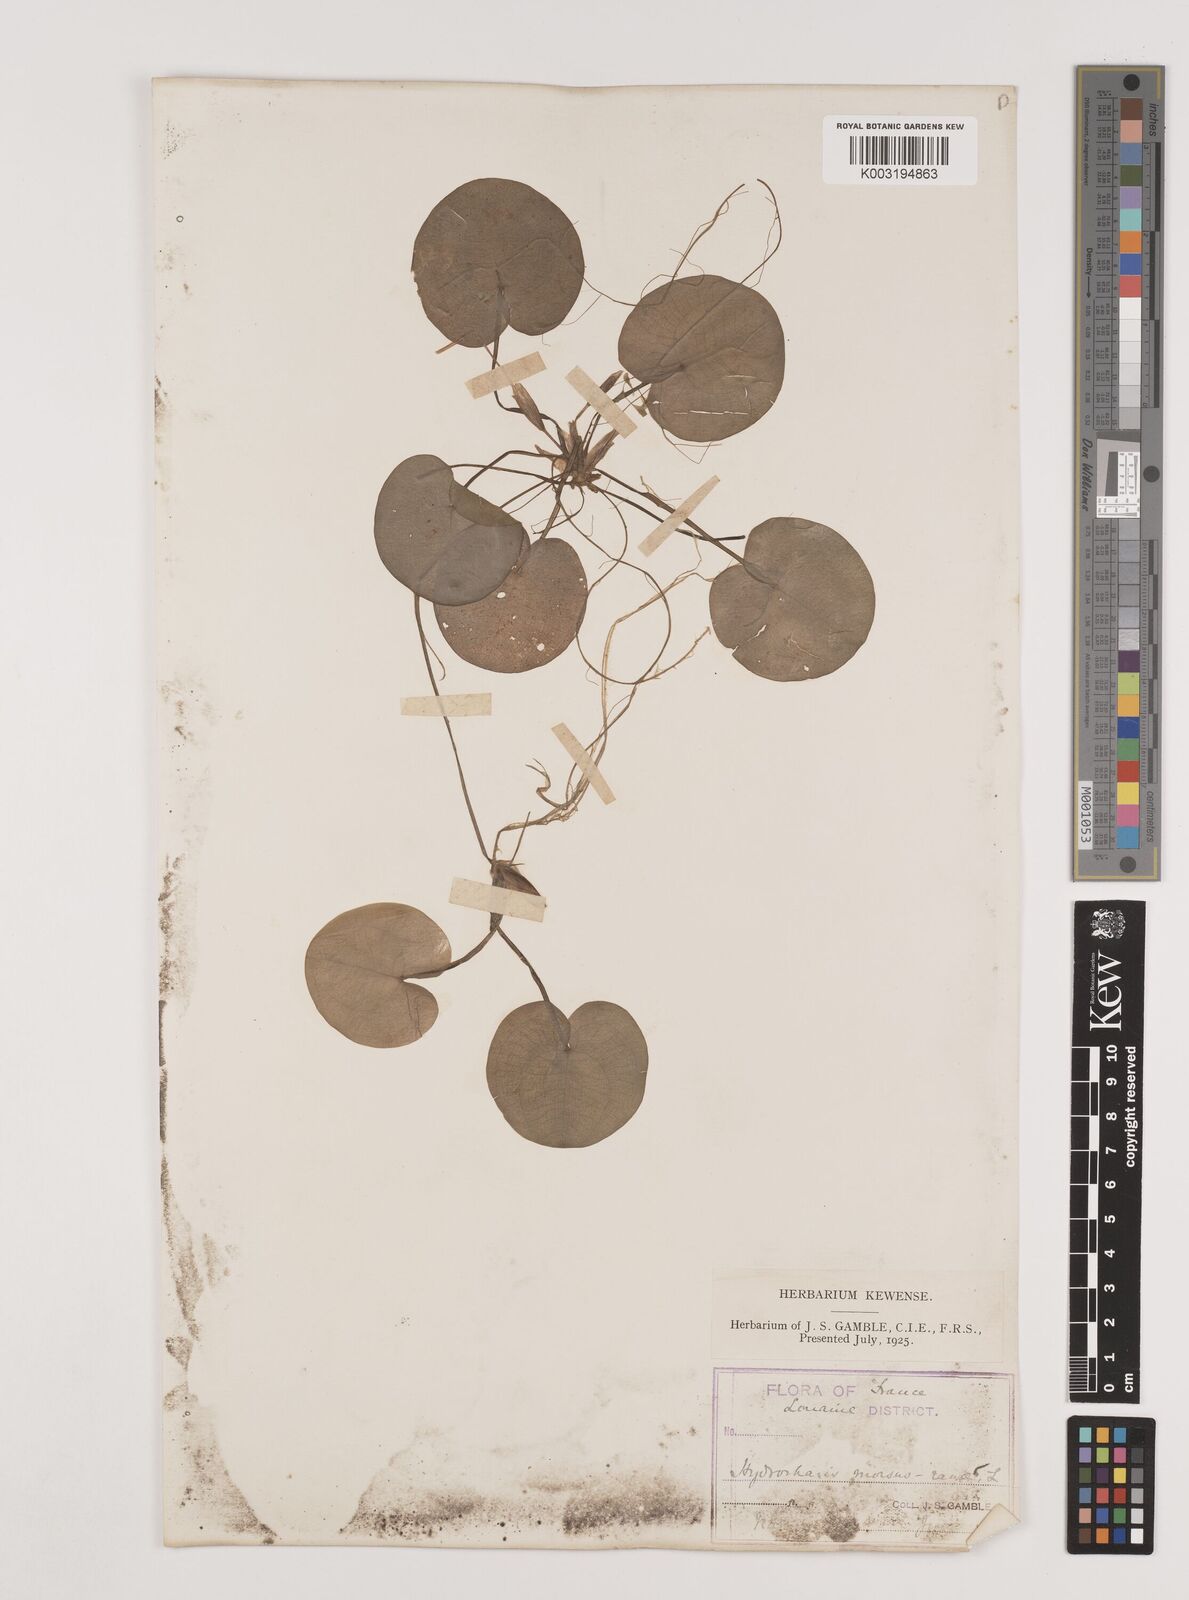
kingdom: Plantae
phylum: Tracheophyta
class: Liliopsida
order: Alismatales
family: Hydrocharitaceae
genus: Hydrocharis
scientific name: Hydrocharis morsus-ranae
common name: Frogbit
